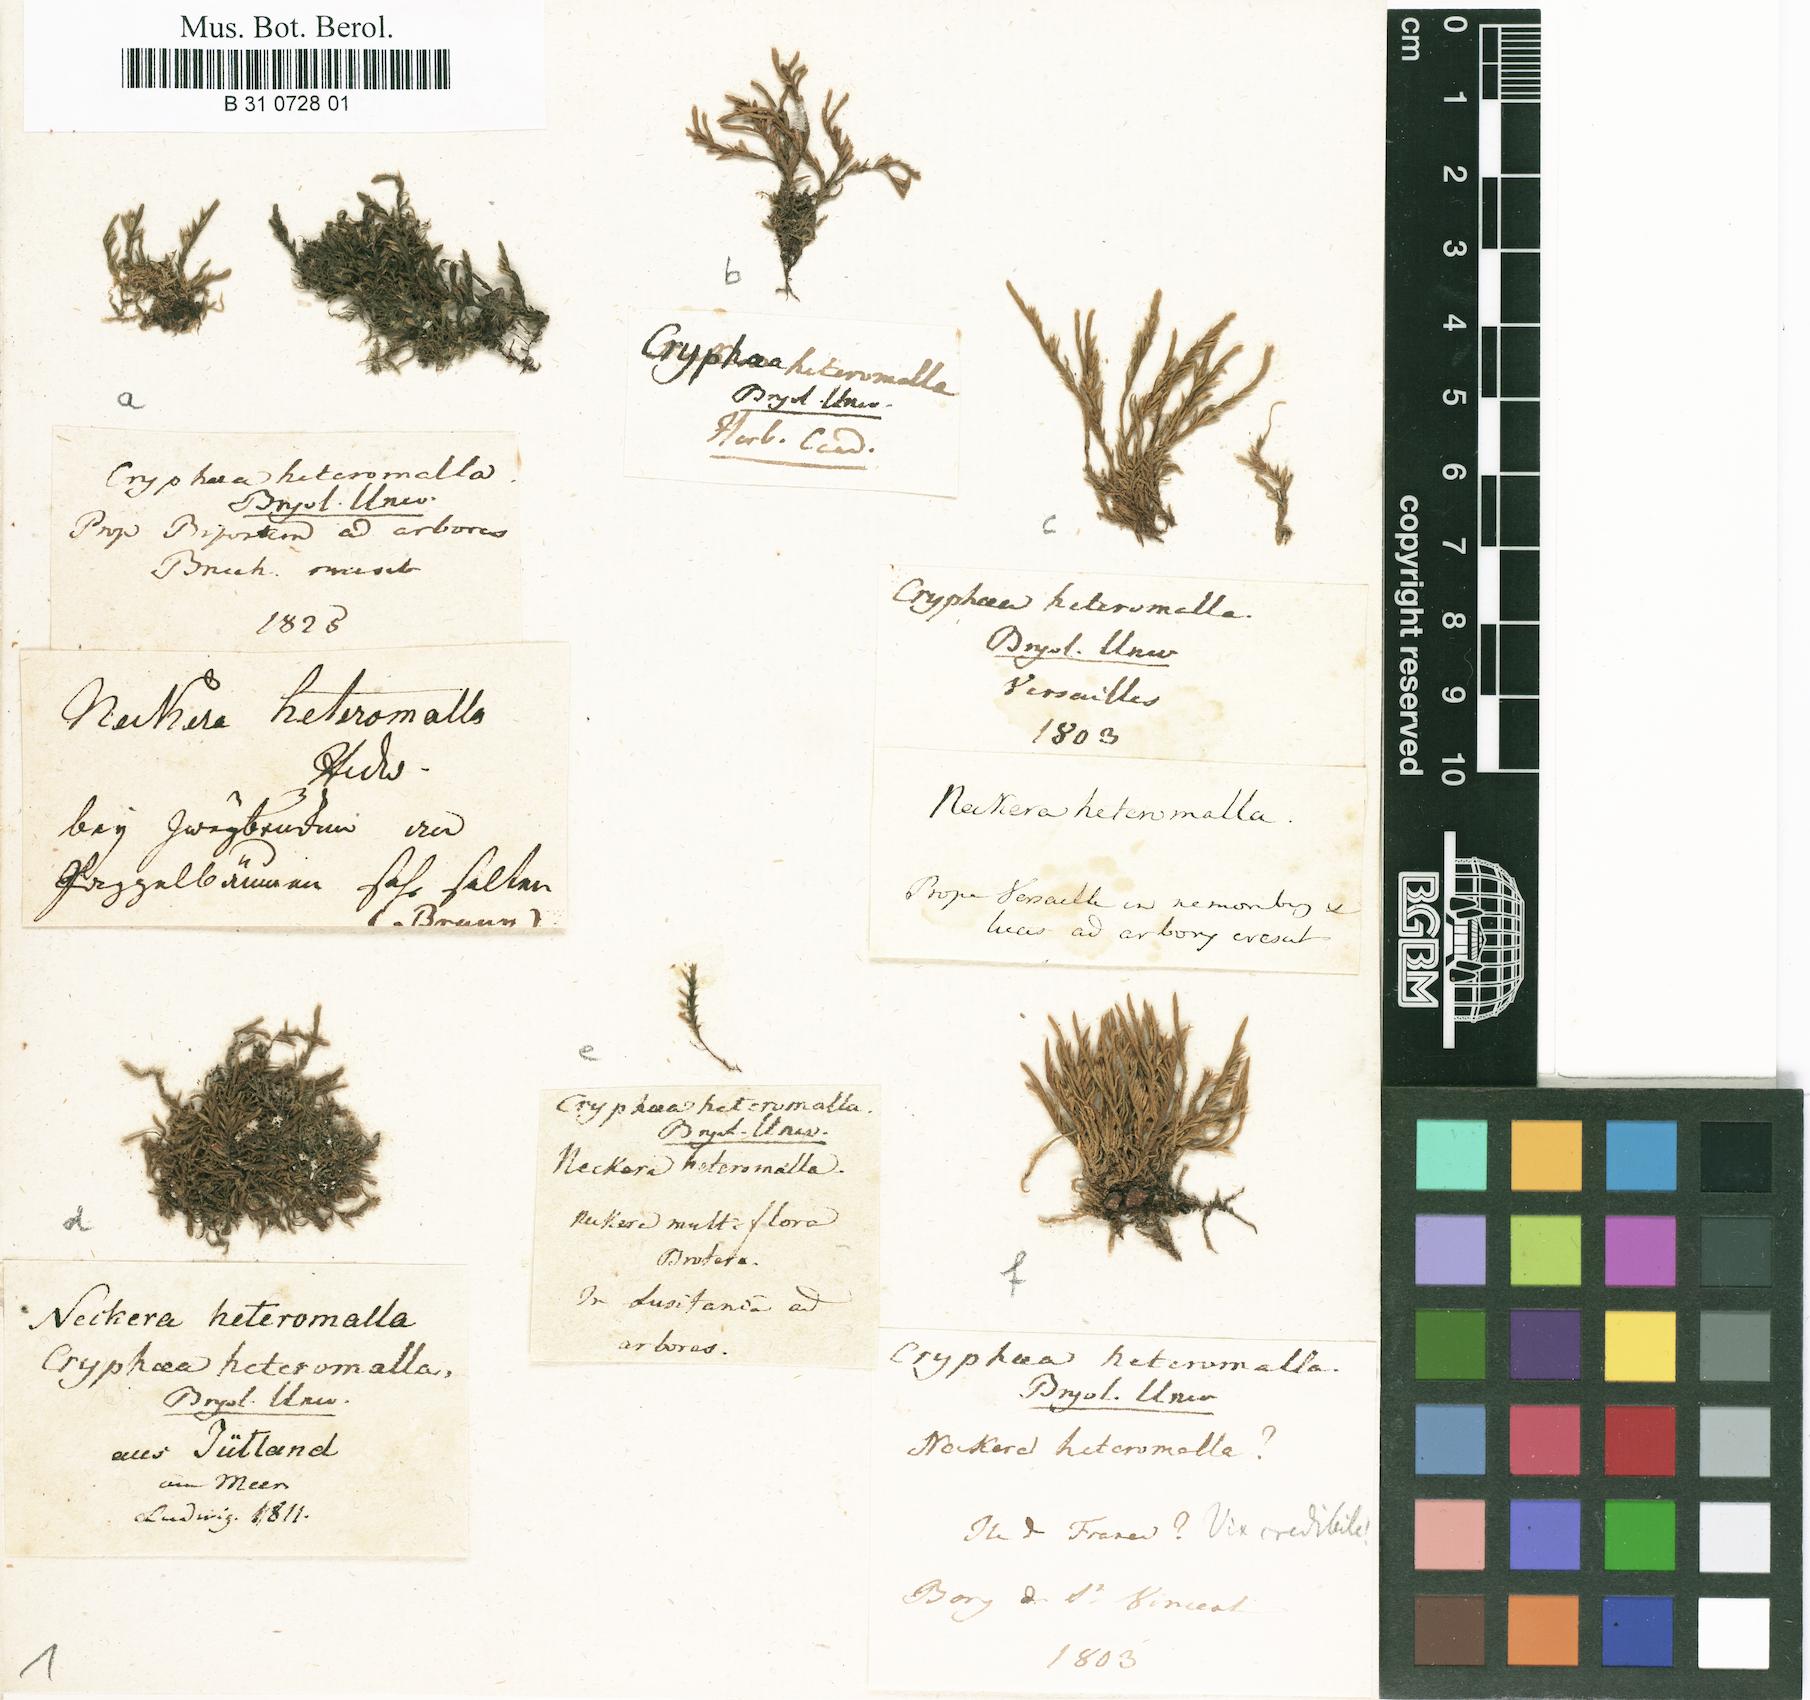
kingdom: Plantae
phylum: Bryophyta
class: Bryopsida
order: Hypnales
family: Cryphaeaceae
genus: Cryphaea
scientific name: Cryphaea heteromalla
